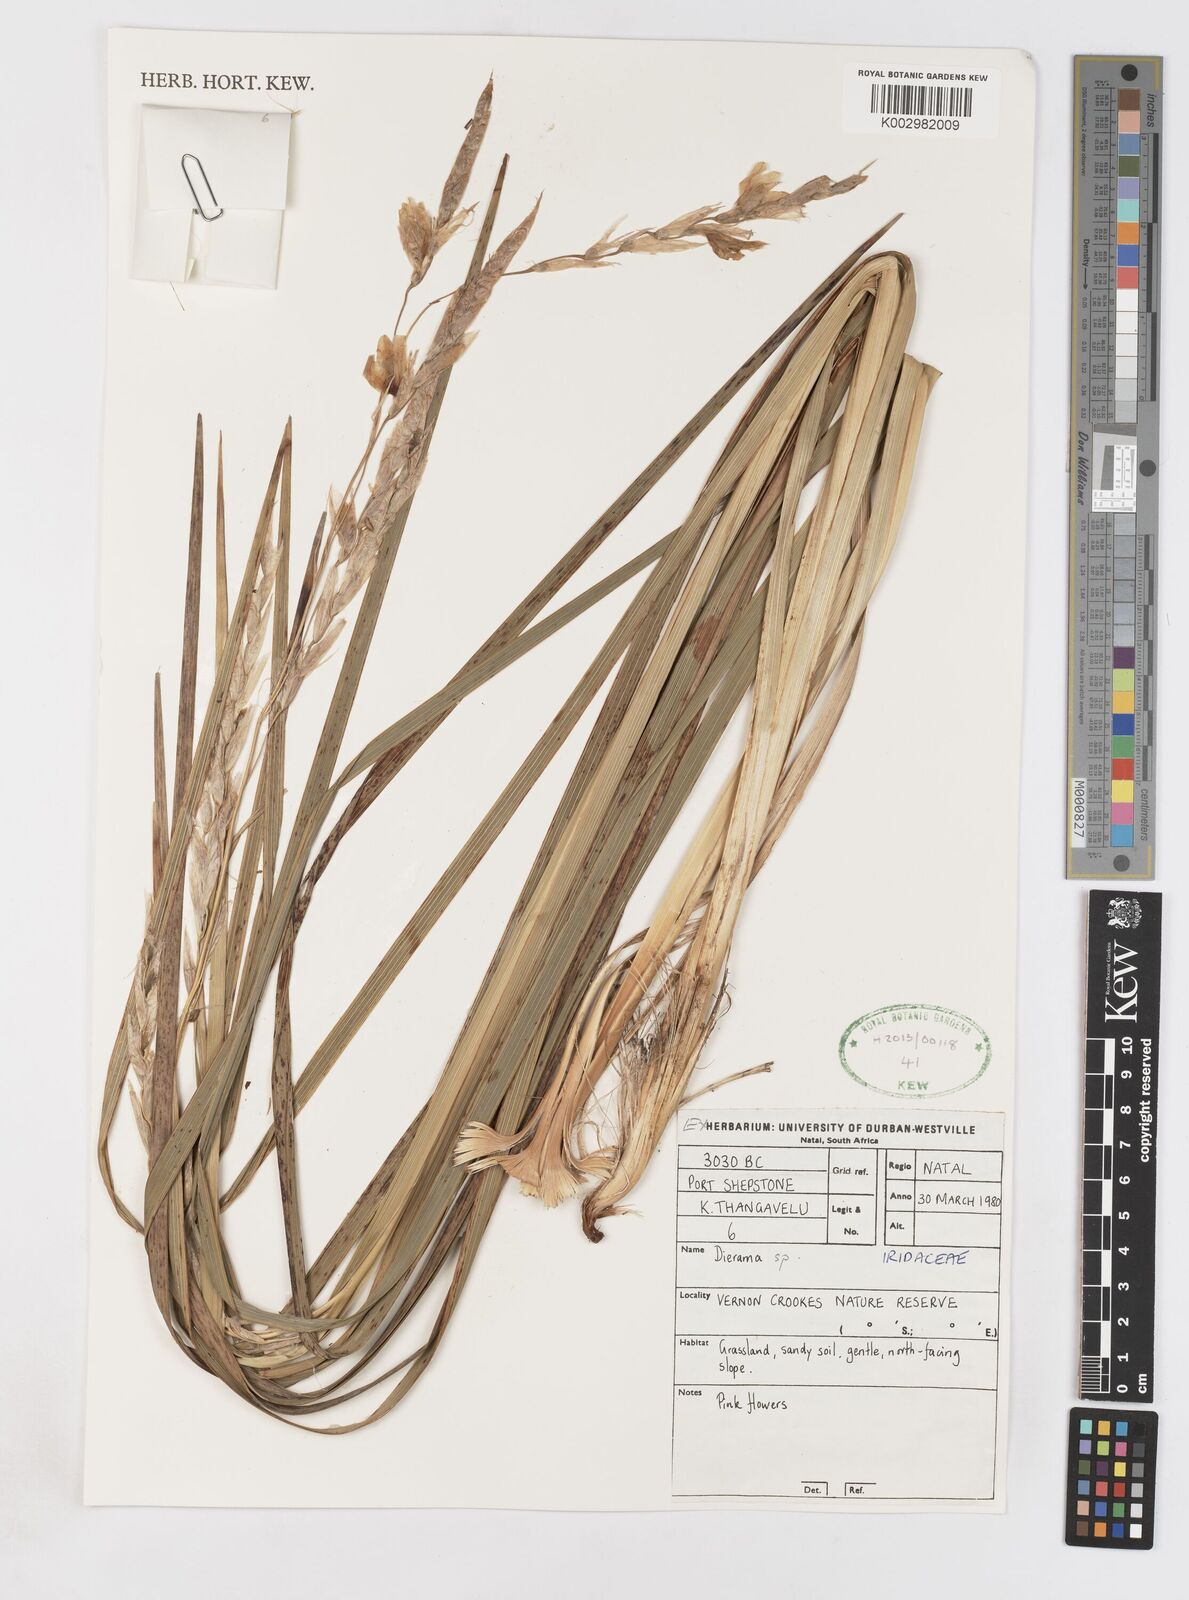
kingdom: Plantae
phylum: Tracheophyta
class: Liliopsida
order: Asparagales
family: Iridaceae
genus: Dierama
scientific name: Dierama
